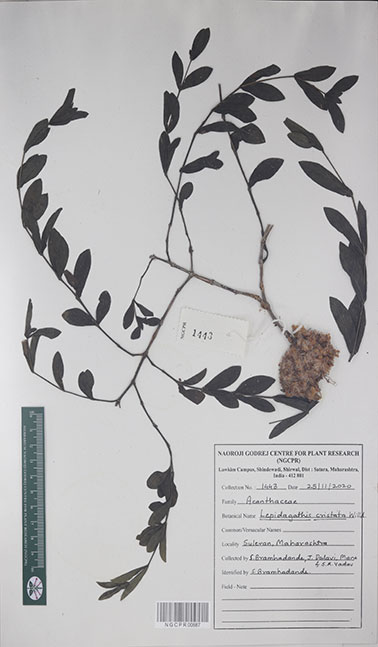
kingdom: Plantae
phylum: Tracheophyta
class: Magnoliopsida
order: Lamiales
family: Acanthaceae
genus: Lepidagathis
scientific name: Lepidagathis cristata
